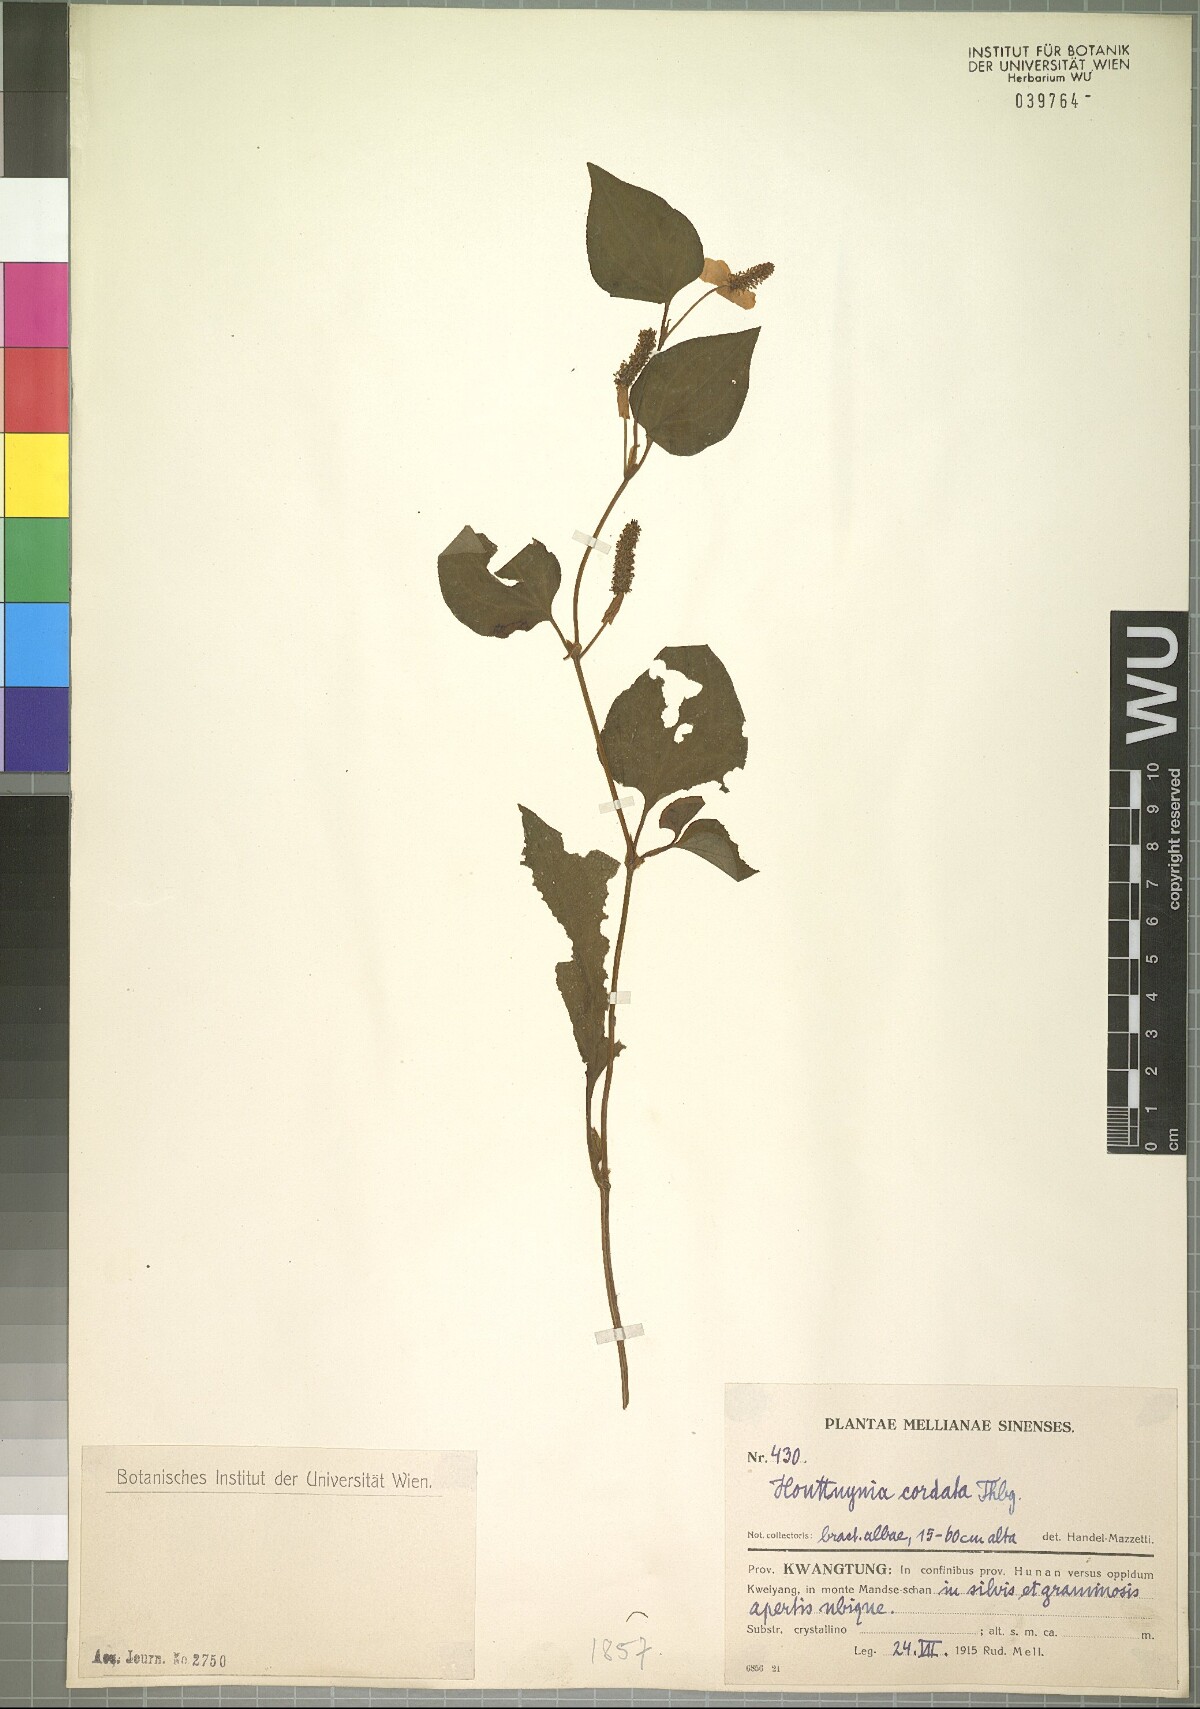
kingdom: Plantae
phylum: Tracheophyta
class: Magnoliopsida
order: Piperales
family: Saururaceae
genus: Houttuynia
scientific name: Houttuynia cordata
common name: Chameleon
